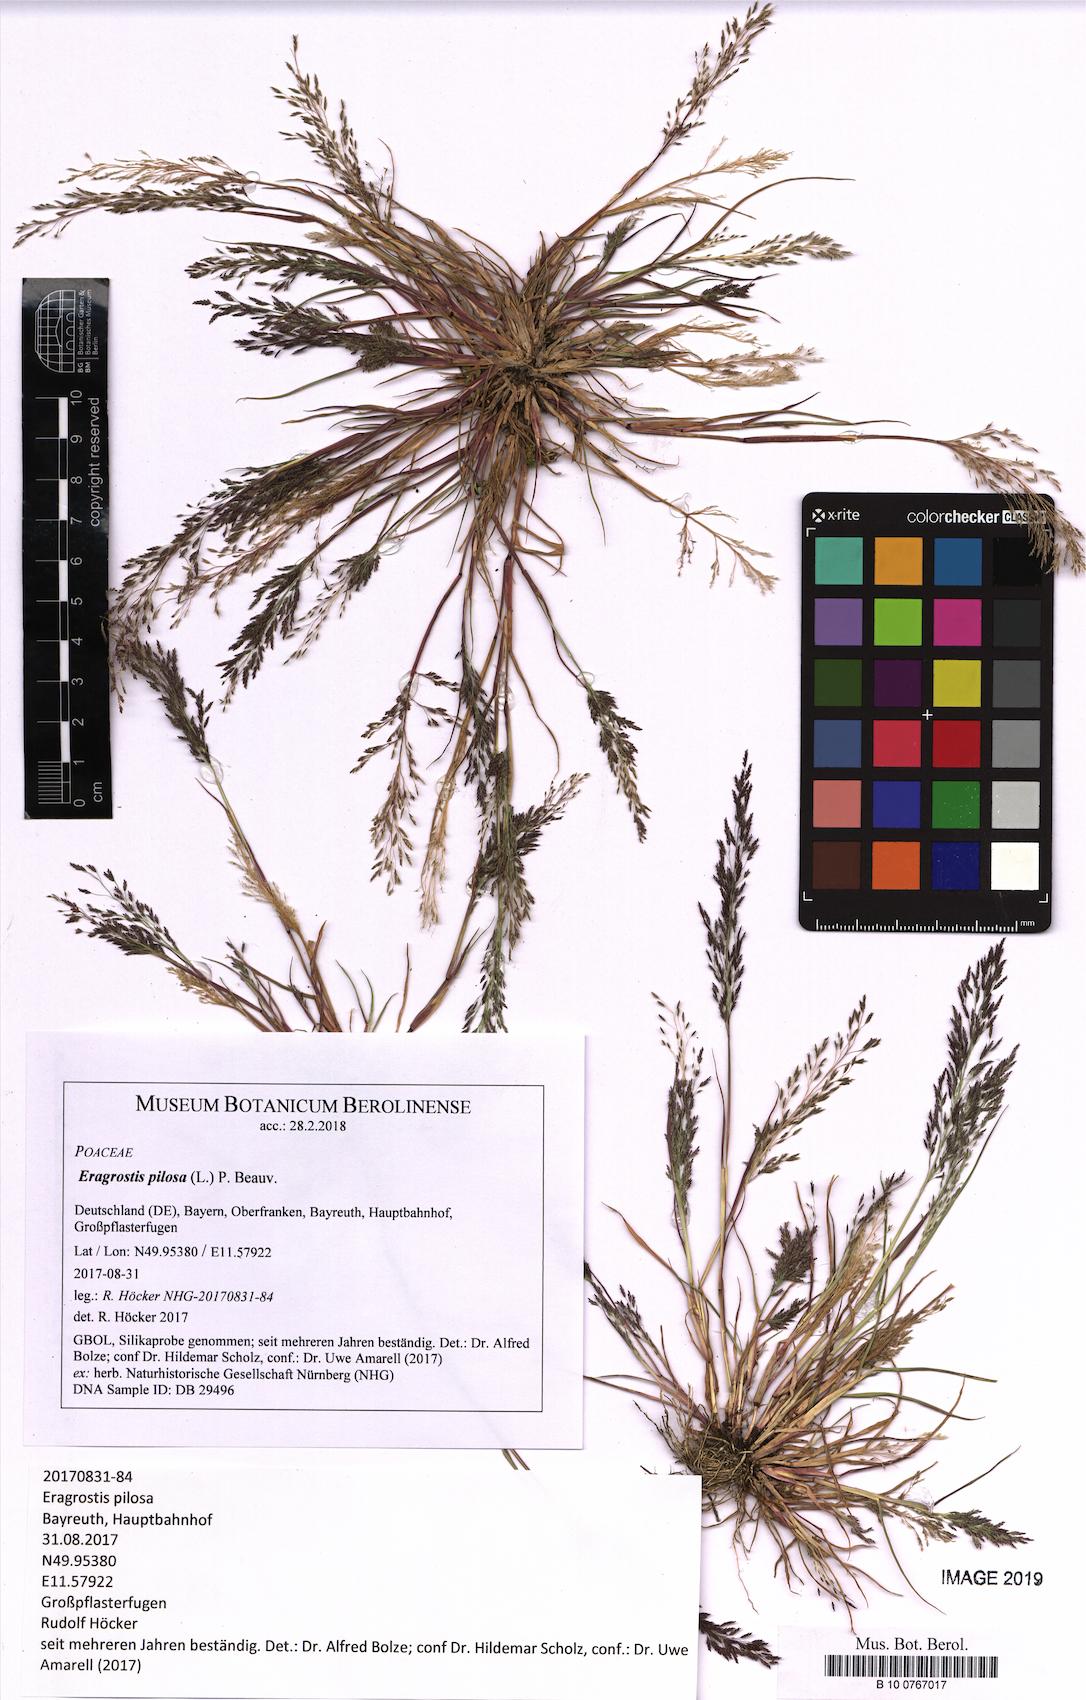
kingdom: Plantae
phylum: Tracheophyta
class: Liliopsida
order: Poales
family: Poaceae
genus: Eragrostis
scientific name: Eragrostis pilosa
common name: Indian lovegrass
